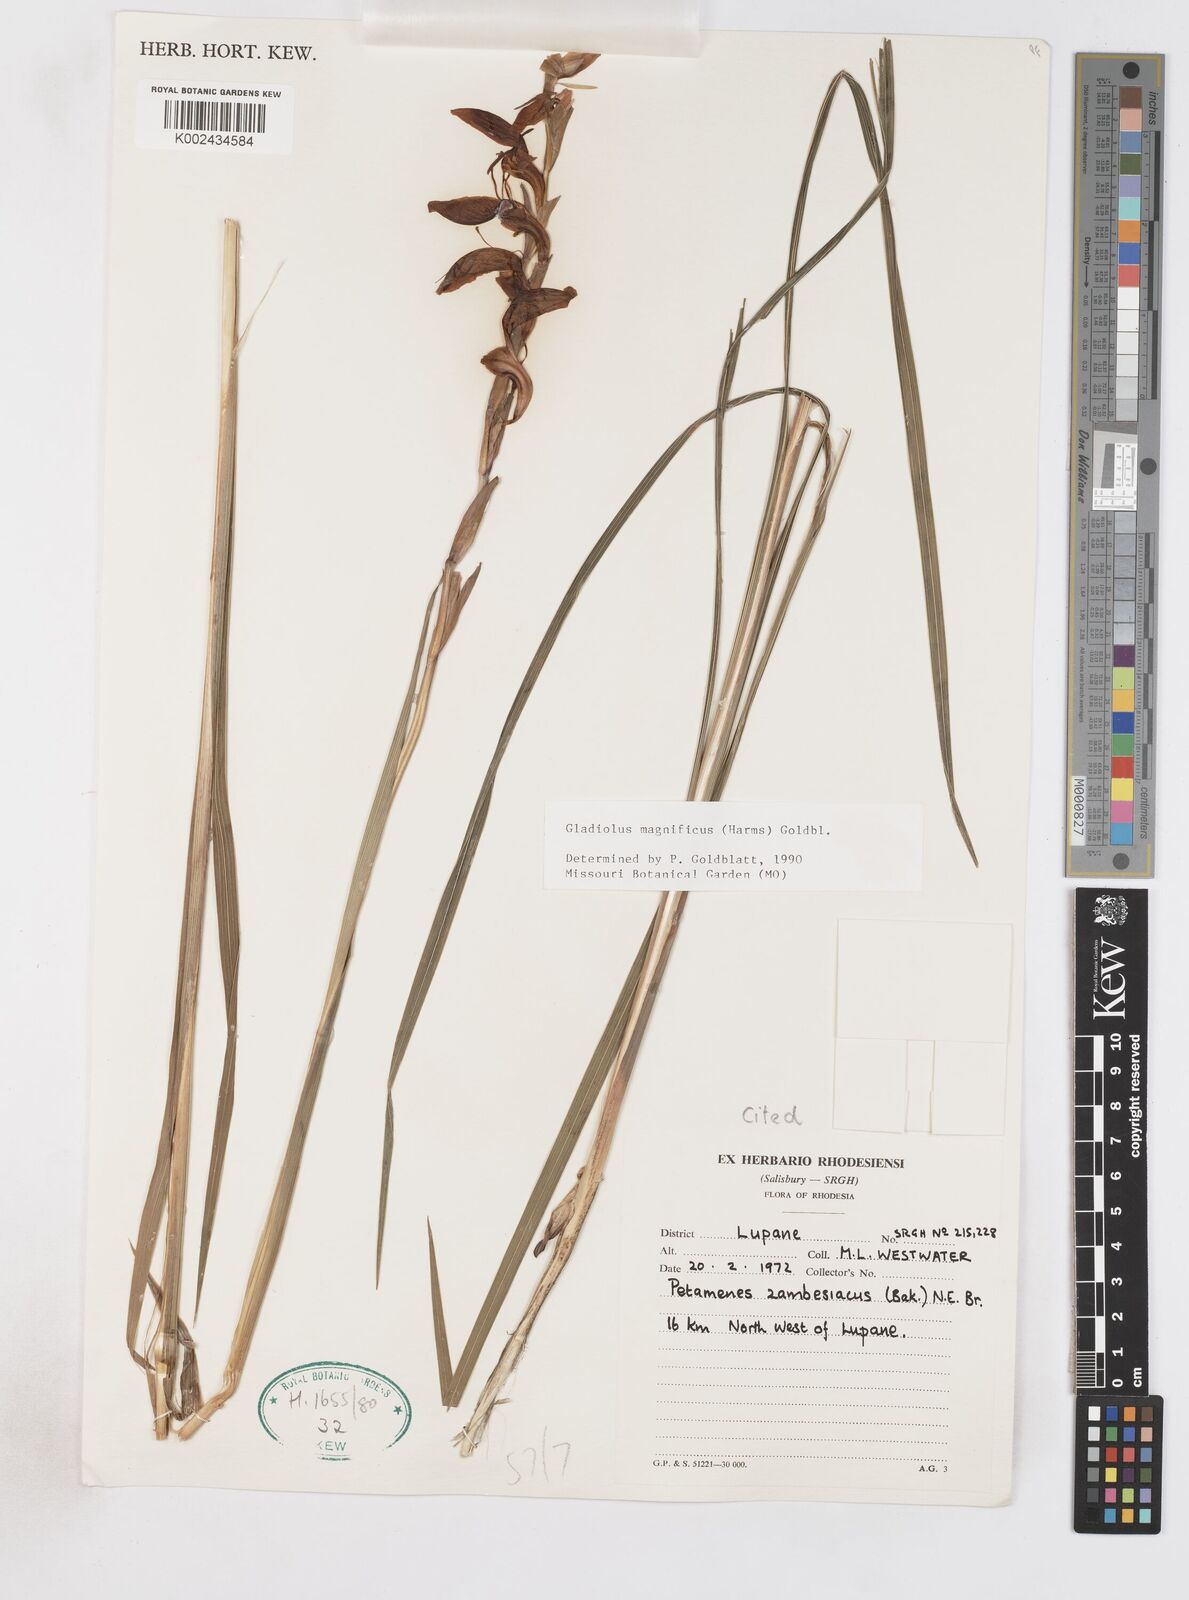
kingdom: Plantae
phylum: Tracheophyta
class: Liliopsida
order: Asparagales
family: Iridaceae
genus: Gladiolus
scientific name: Gladiolus magnificus
